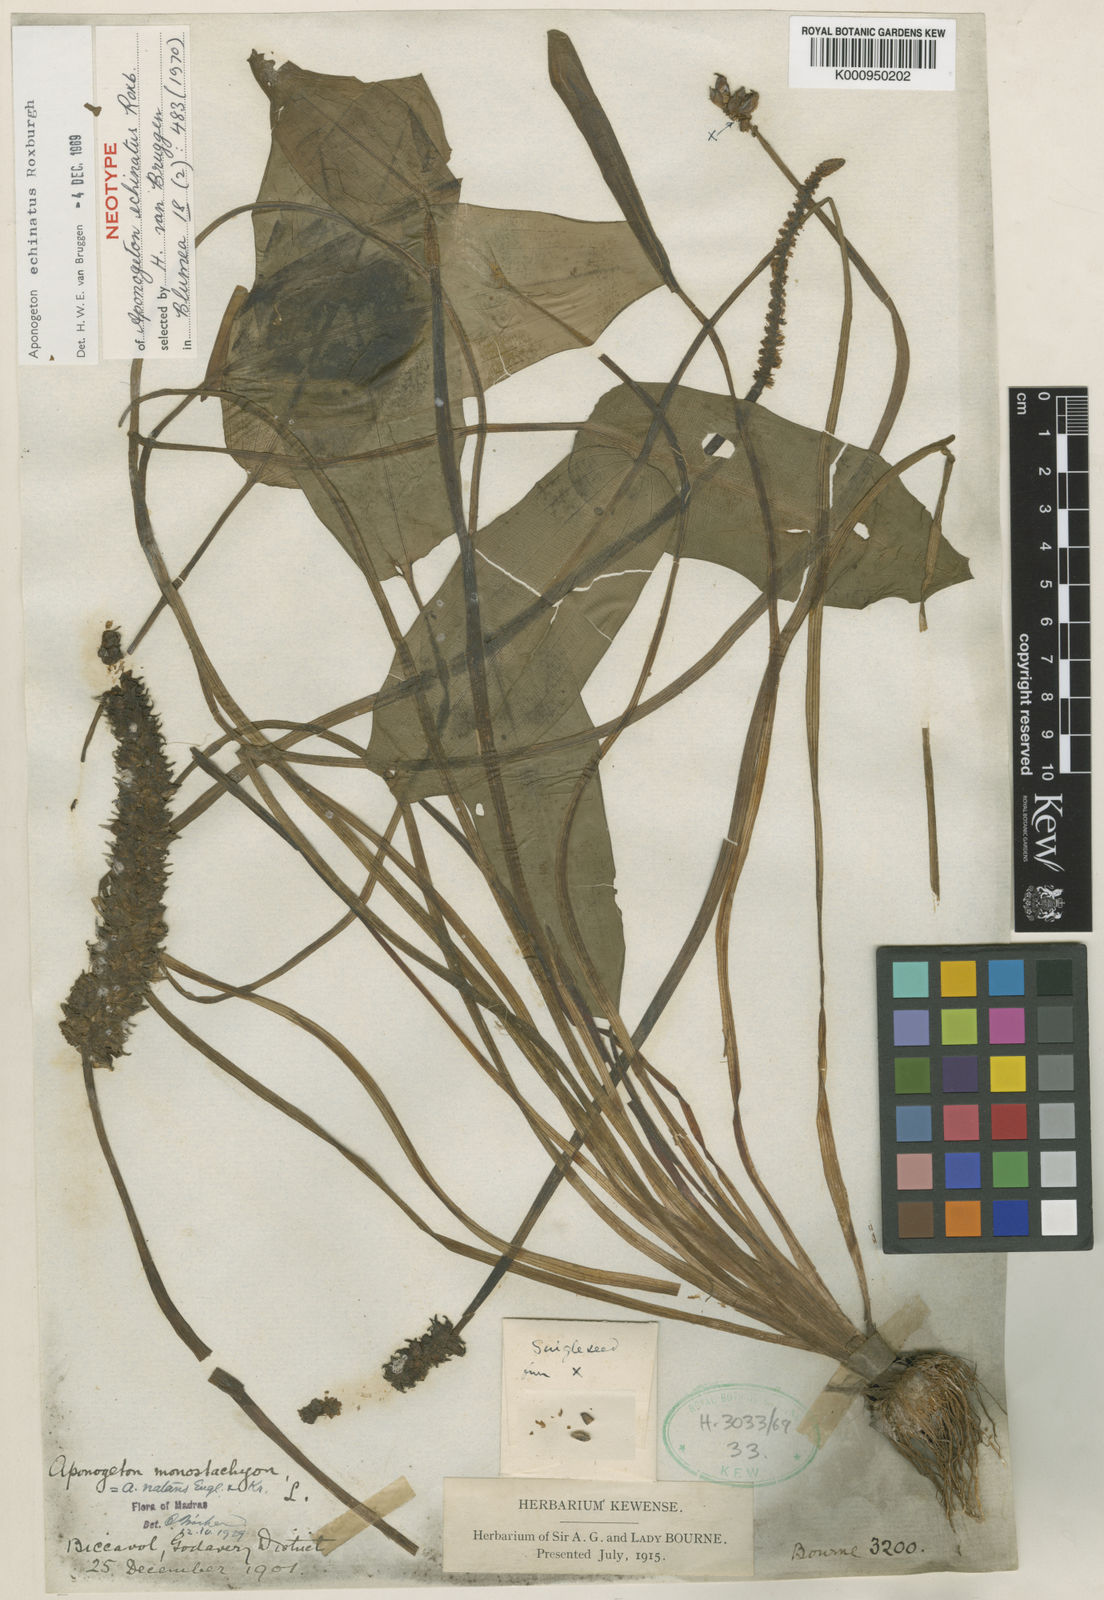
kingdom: Plantae
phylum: Tracheophyta
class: Liliopsida
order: Alismatales
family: Aponogetonaceae
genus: Aponogeton
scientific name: Aponogeton crispus
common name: Crinkled aponogeton
